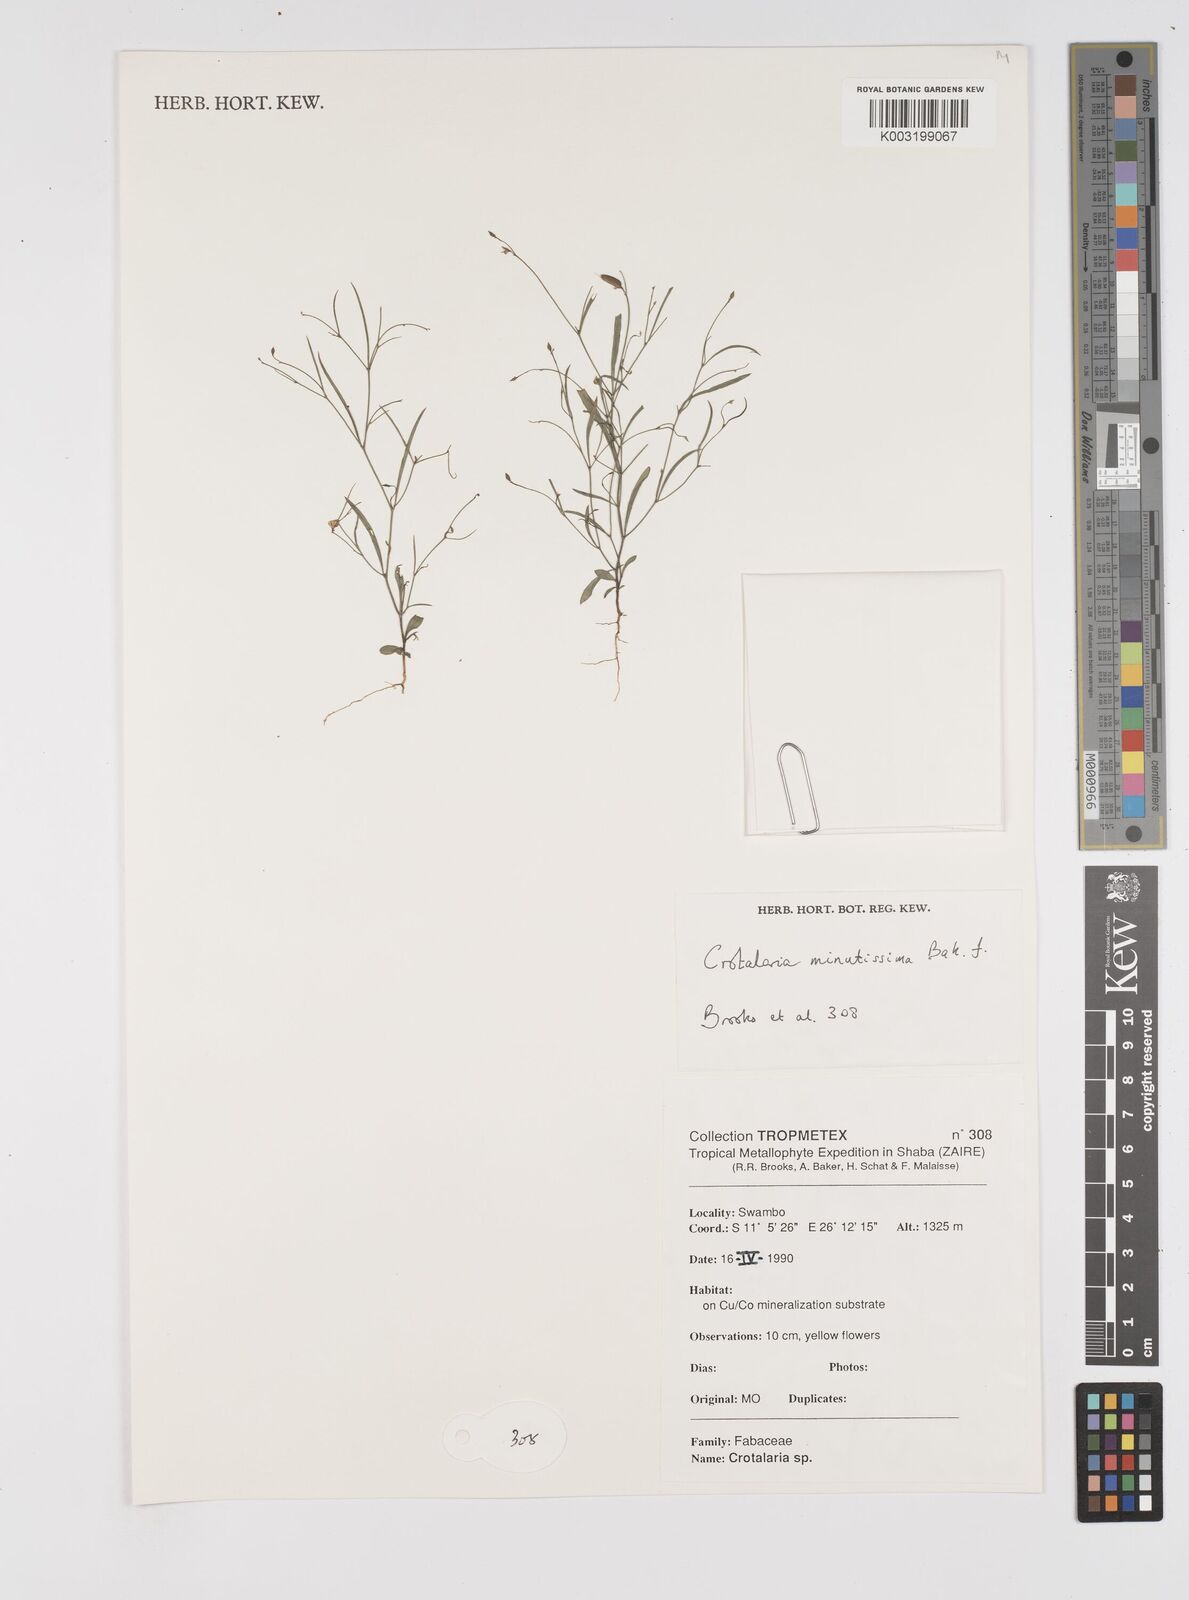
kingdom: Plantae
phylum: Tracheophyta
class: Magnoliopsida
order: Fabales
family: Fabaceae
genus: Crotalaria
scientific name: Crotalaria minutissima
